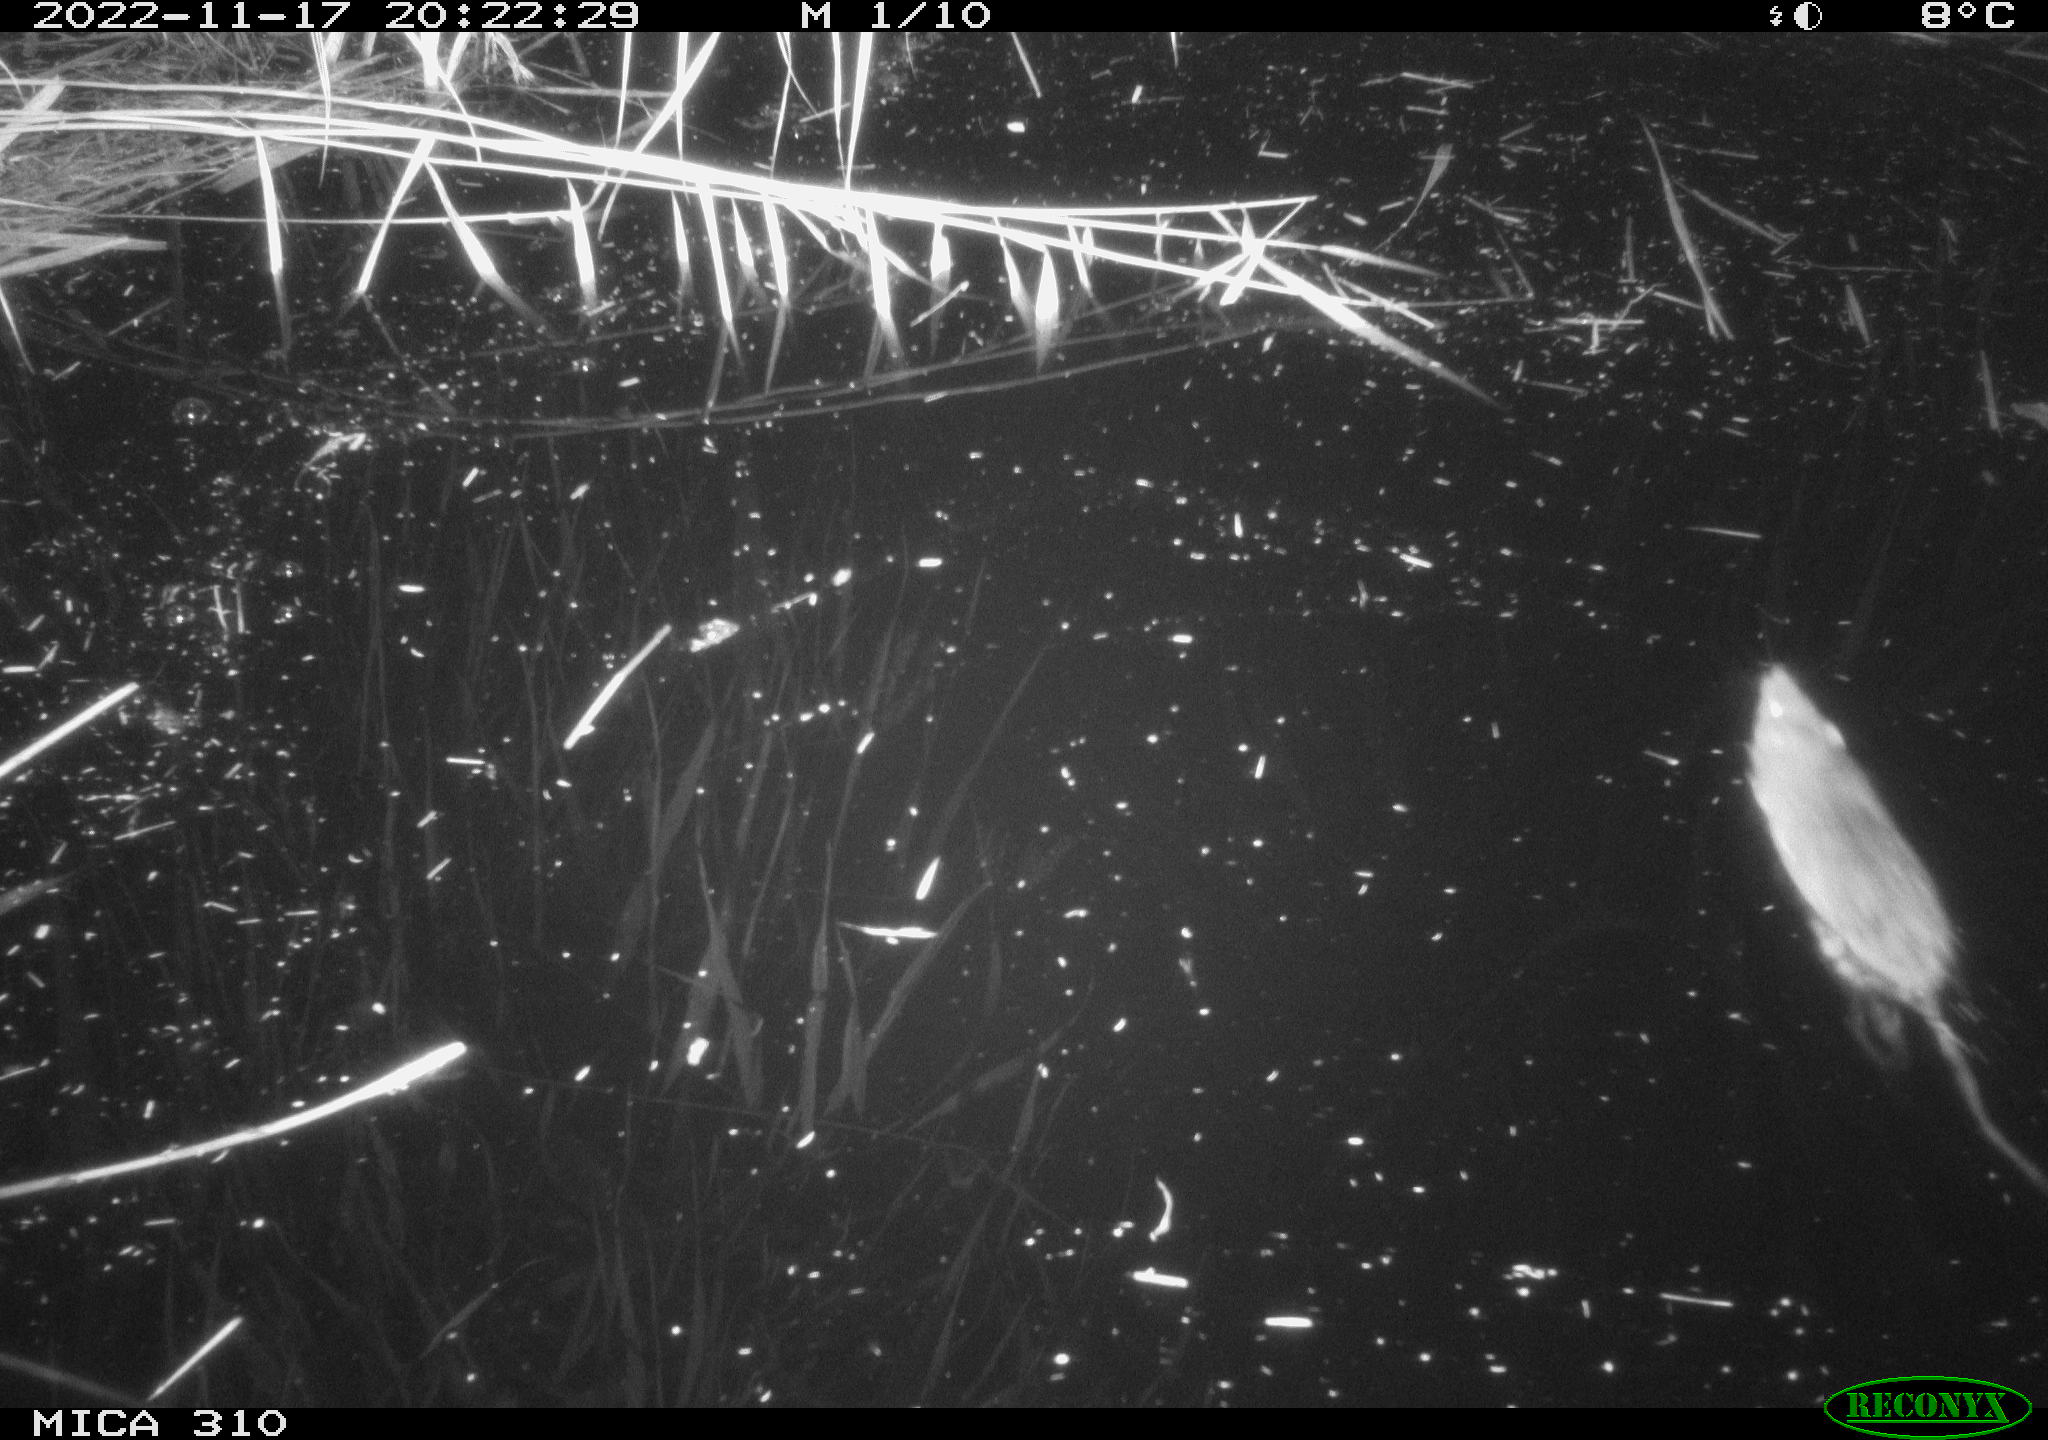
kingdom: Animalia
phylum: Chordata
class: Mammalia
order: Rodentia
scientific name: Rodentia
